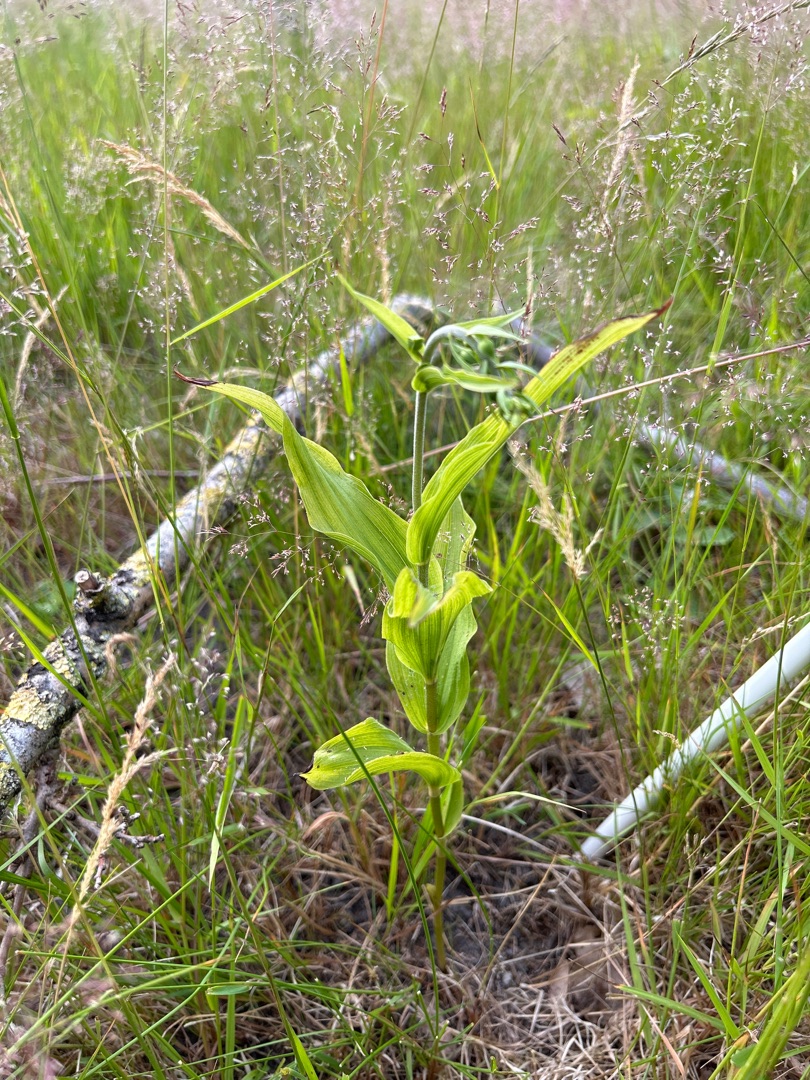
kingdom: Plantae
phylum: Tracheophyta
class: Liliopsida
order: Asparagales
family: Orchidaceae
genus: Epipactis
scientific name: Epipactis helleborine
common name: Skov-hullæbe
